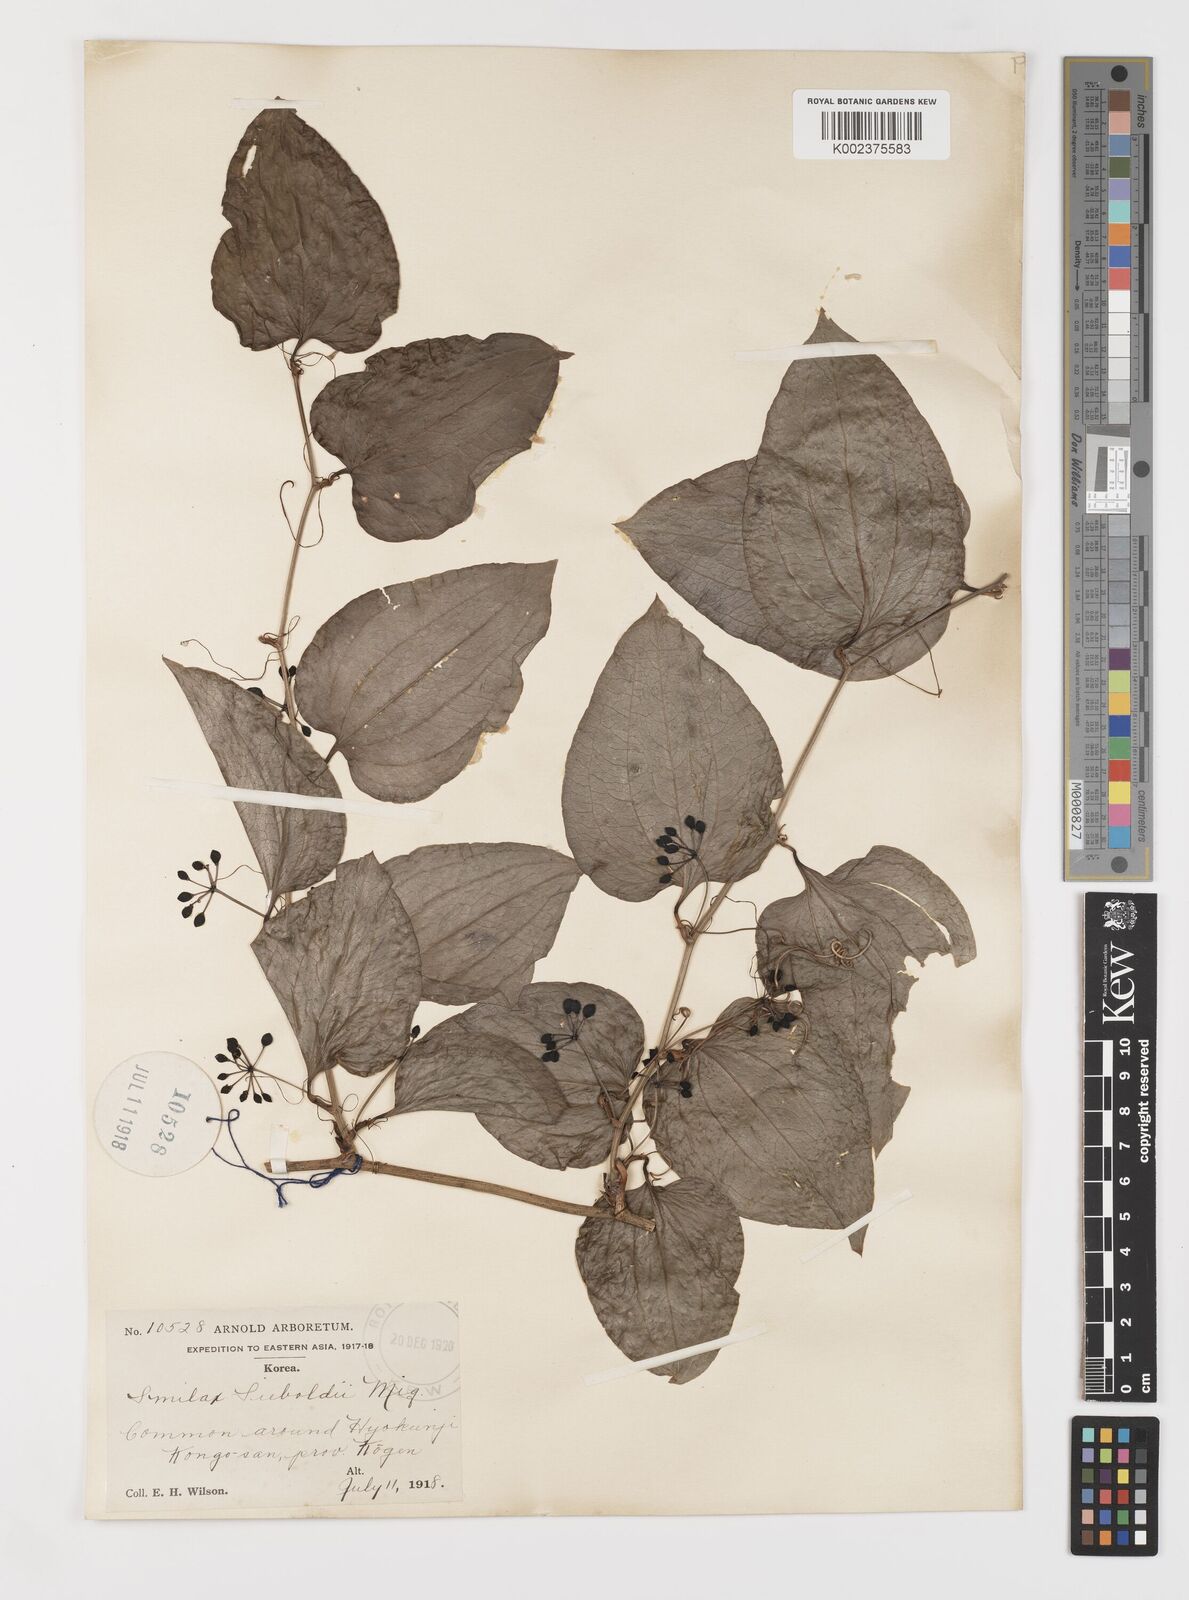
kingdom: Plantae
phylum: Tracheophyta
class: Liliopsida
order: Liliales
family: Smilacaceae
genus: Smilax
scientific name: Smilax sieboldii
